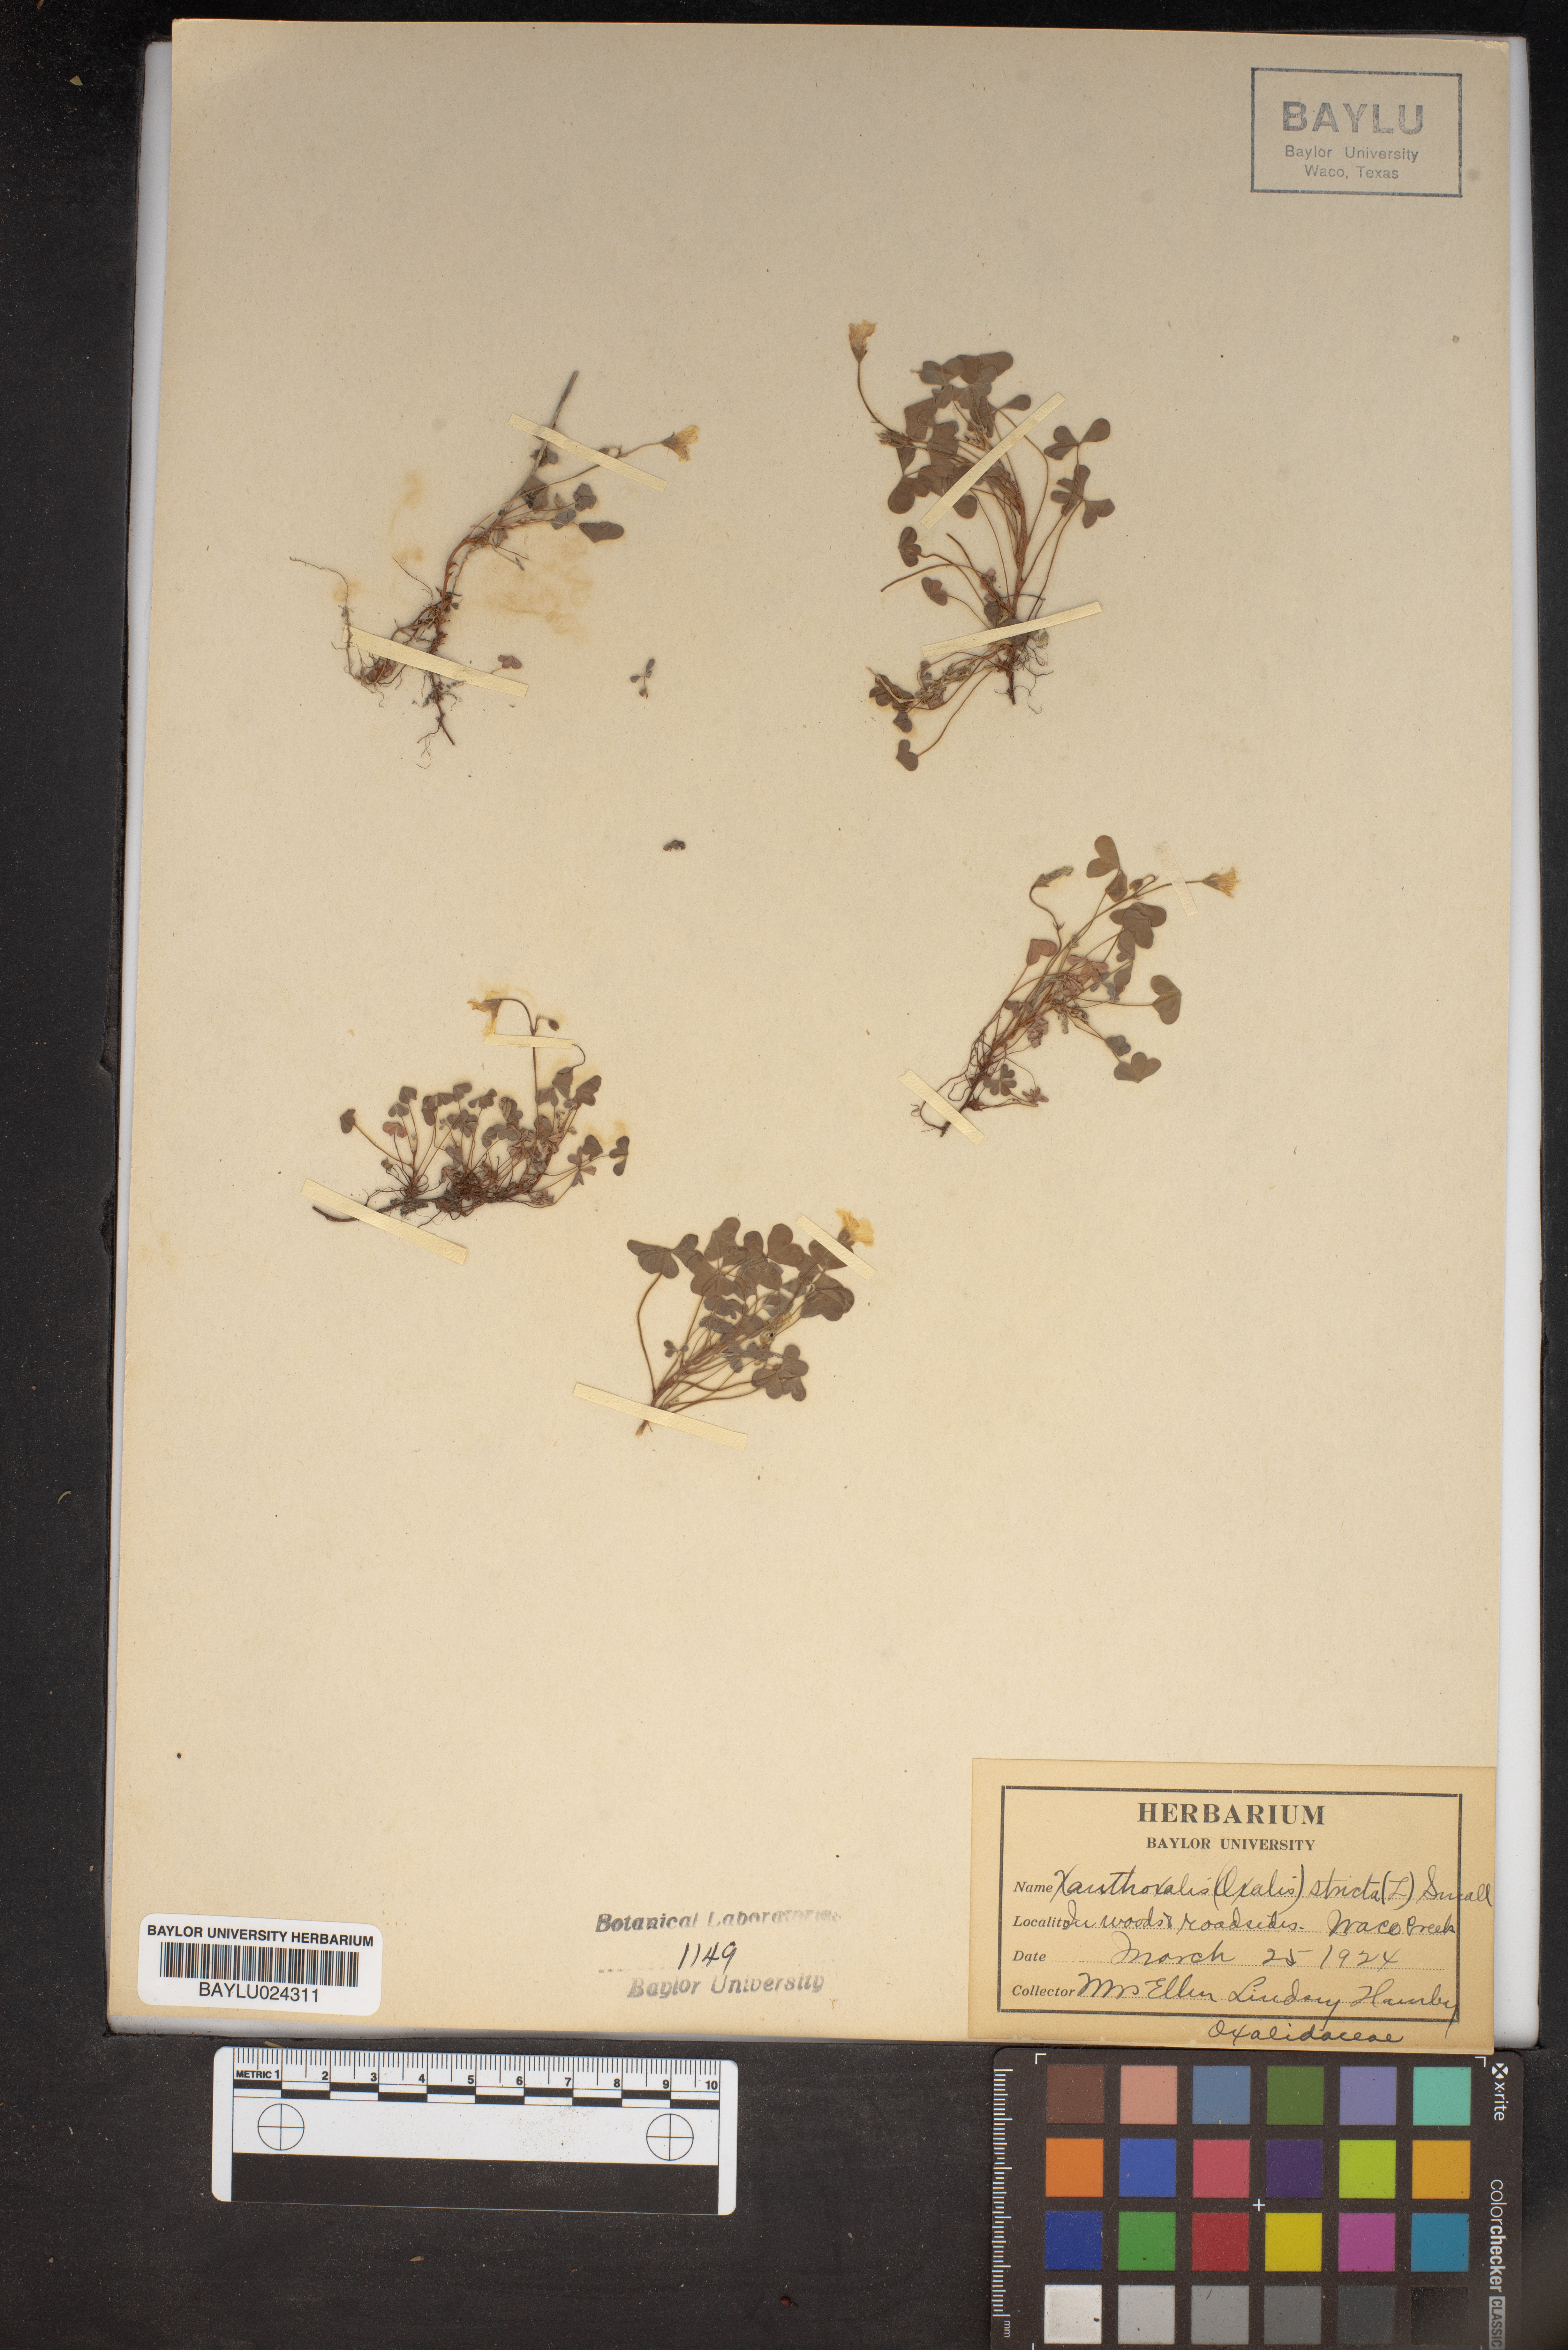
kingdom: Plantae
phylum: Tracheophyta
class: Magnoliopsida
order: Oxalidales
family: Oxalidaceae
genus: Oxalis
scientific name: Oxalis stricta
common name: Upright yellow-sorrel
